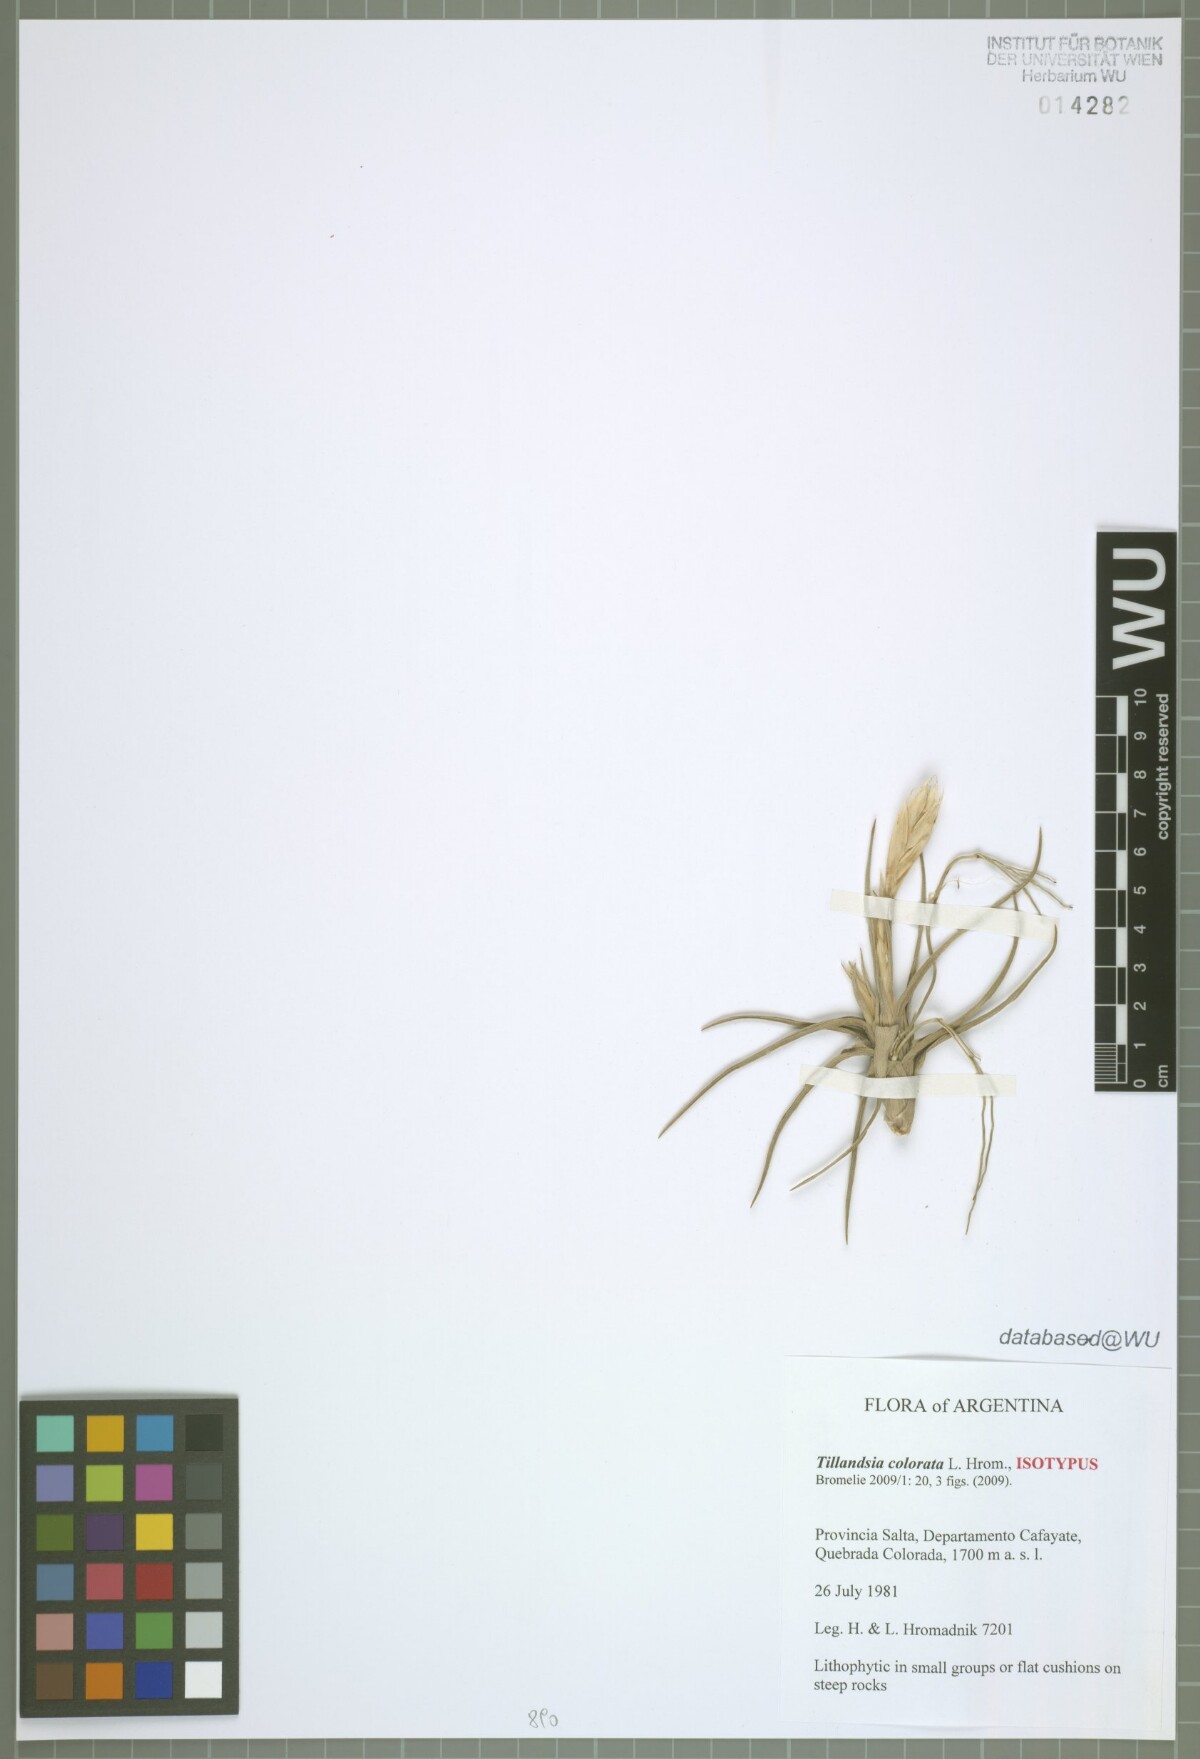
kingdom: Plantae
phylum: Tracheophyta
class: Liliopsida
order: Poales
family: Bromeliaceae
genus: Tillandsia
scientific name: Tillandsia colorata
